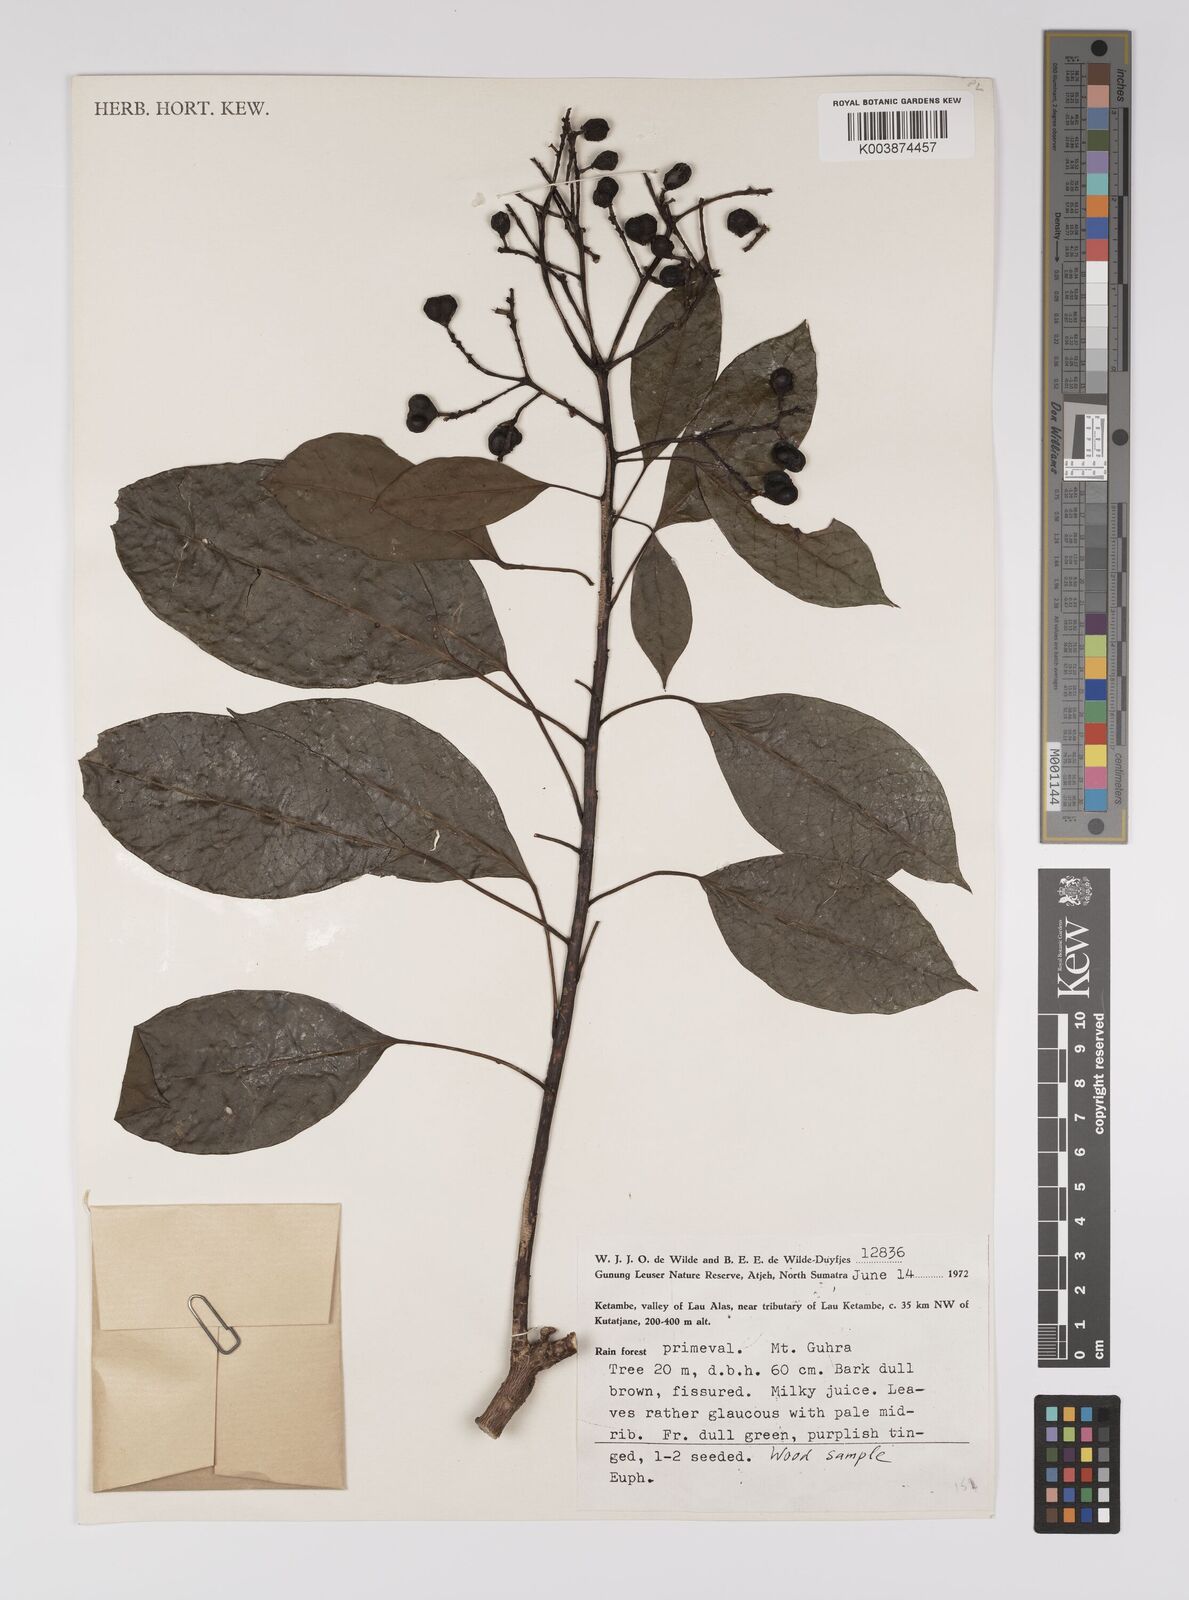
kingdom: Plantae
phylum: Tracheophyta
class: Magnoliopsida
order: Malpighiales
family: Euphorbiaceae
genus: Balakata
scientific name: Balakata baccata
